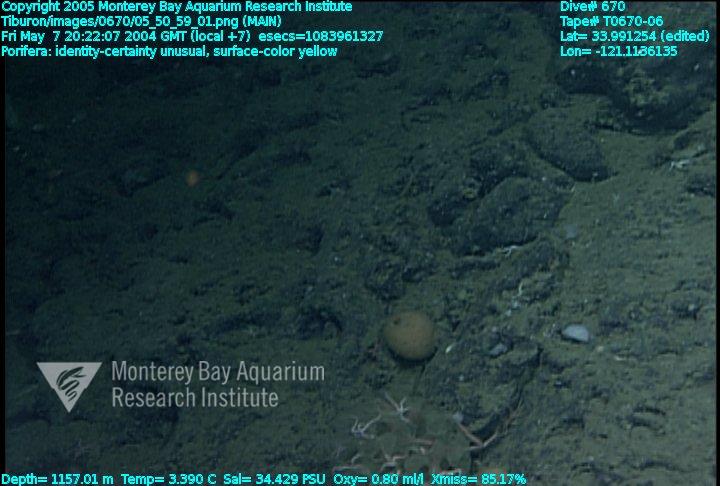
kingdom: Animalia
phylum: Porifera
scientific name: Porifera
